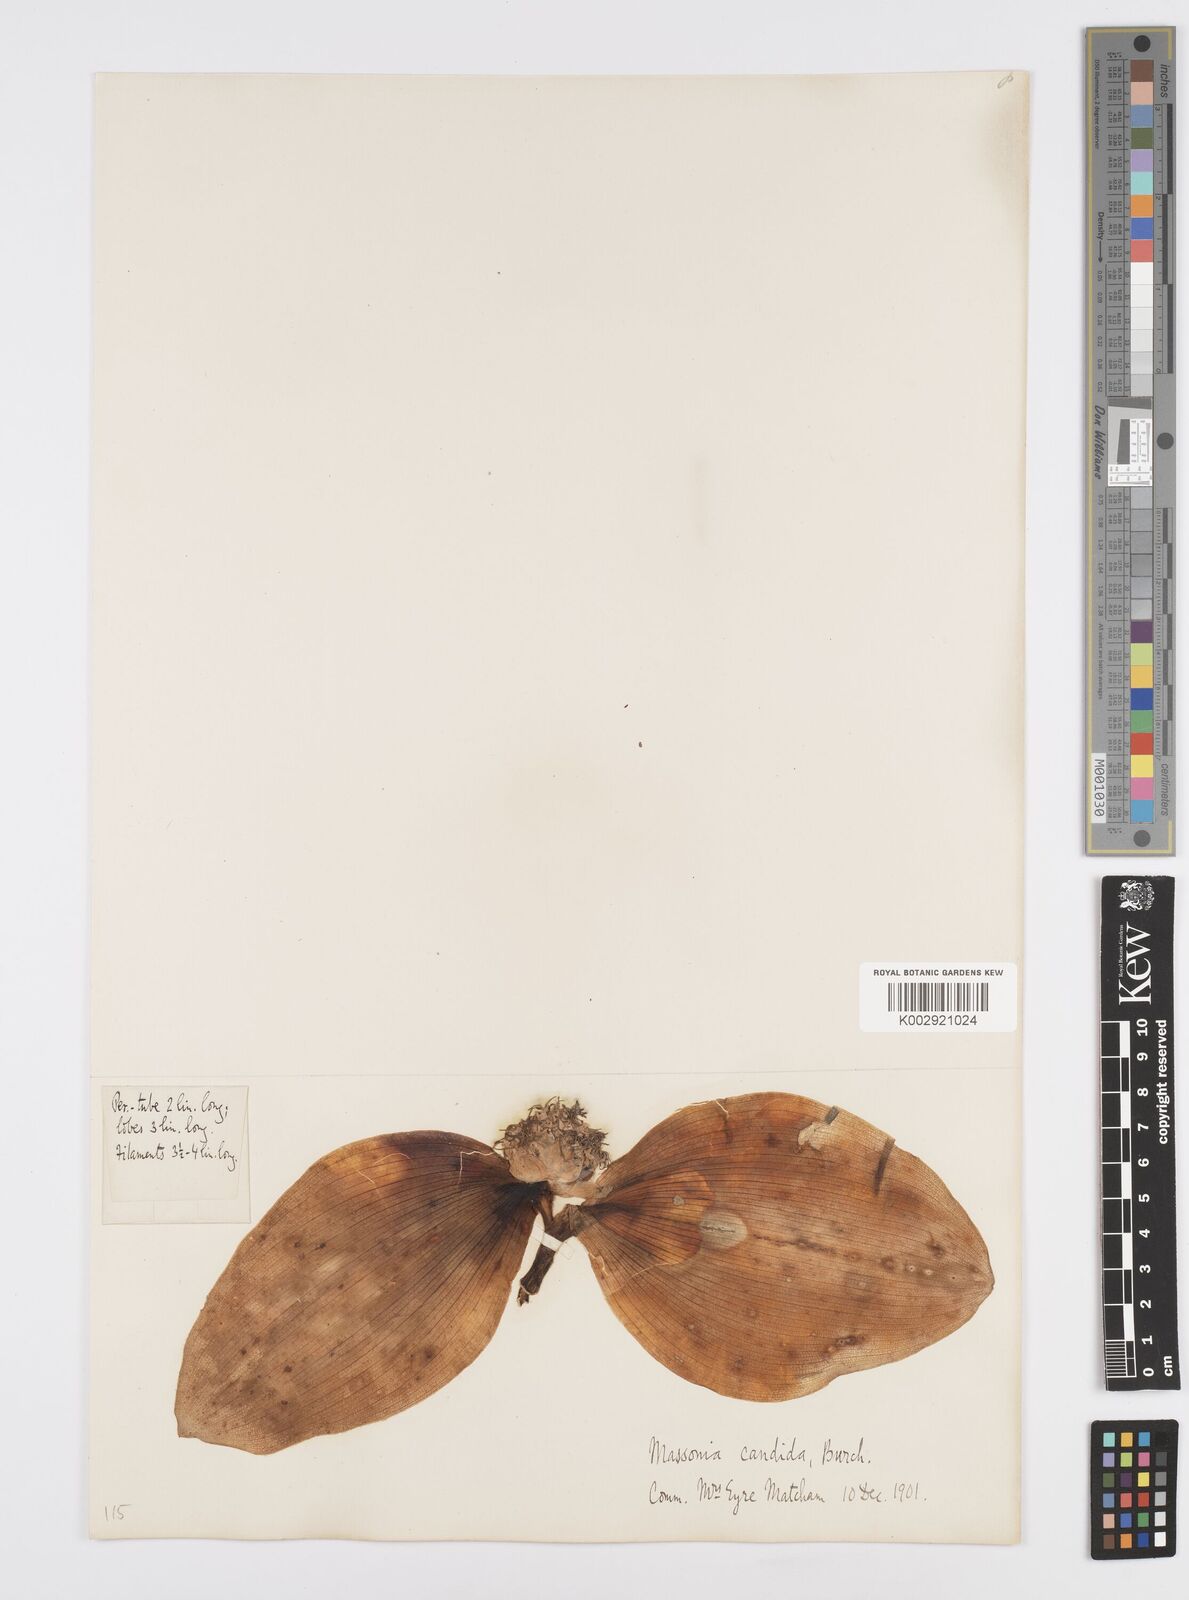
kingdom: Plantae
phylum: Tracheophyta
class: Liliopsida
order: Asparagales
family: Asparagaceae
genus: Massonia
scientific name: Massonia
